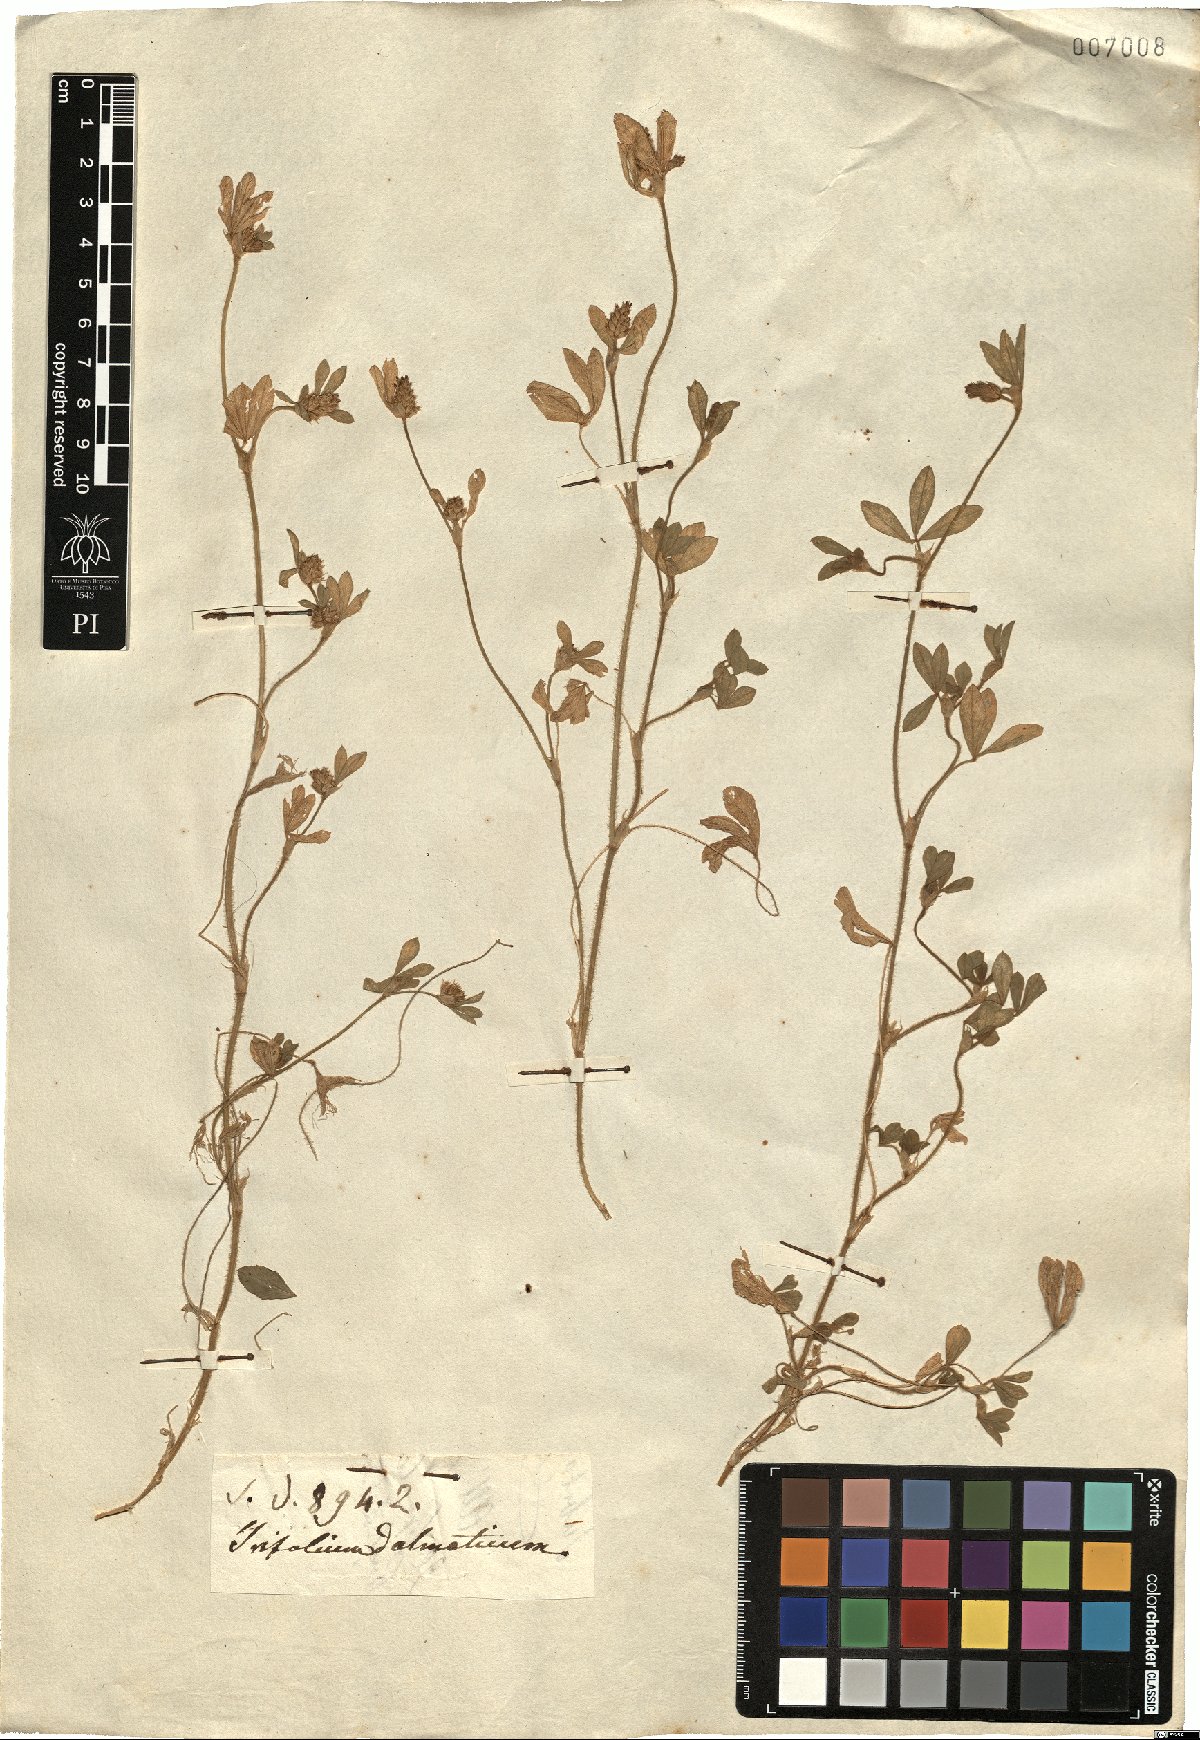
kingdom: Plantae
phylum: Tracheophyta
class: Magnoliopsida
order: Fabales
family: Fabaceae
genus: Trifolium
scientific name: Trifolium dalmaticum
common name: Dalmatian clover
